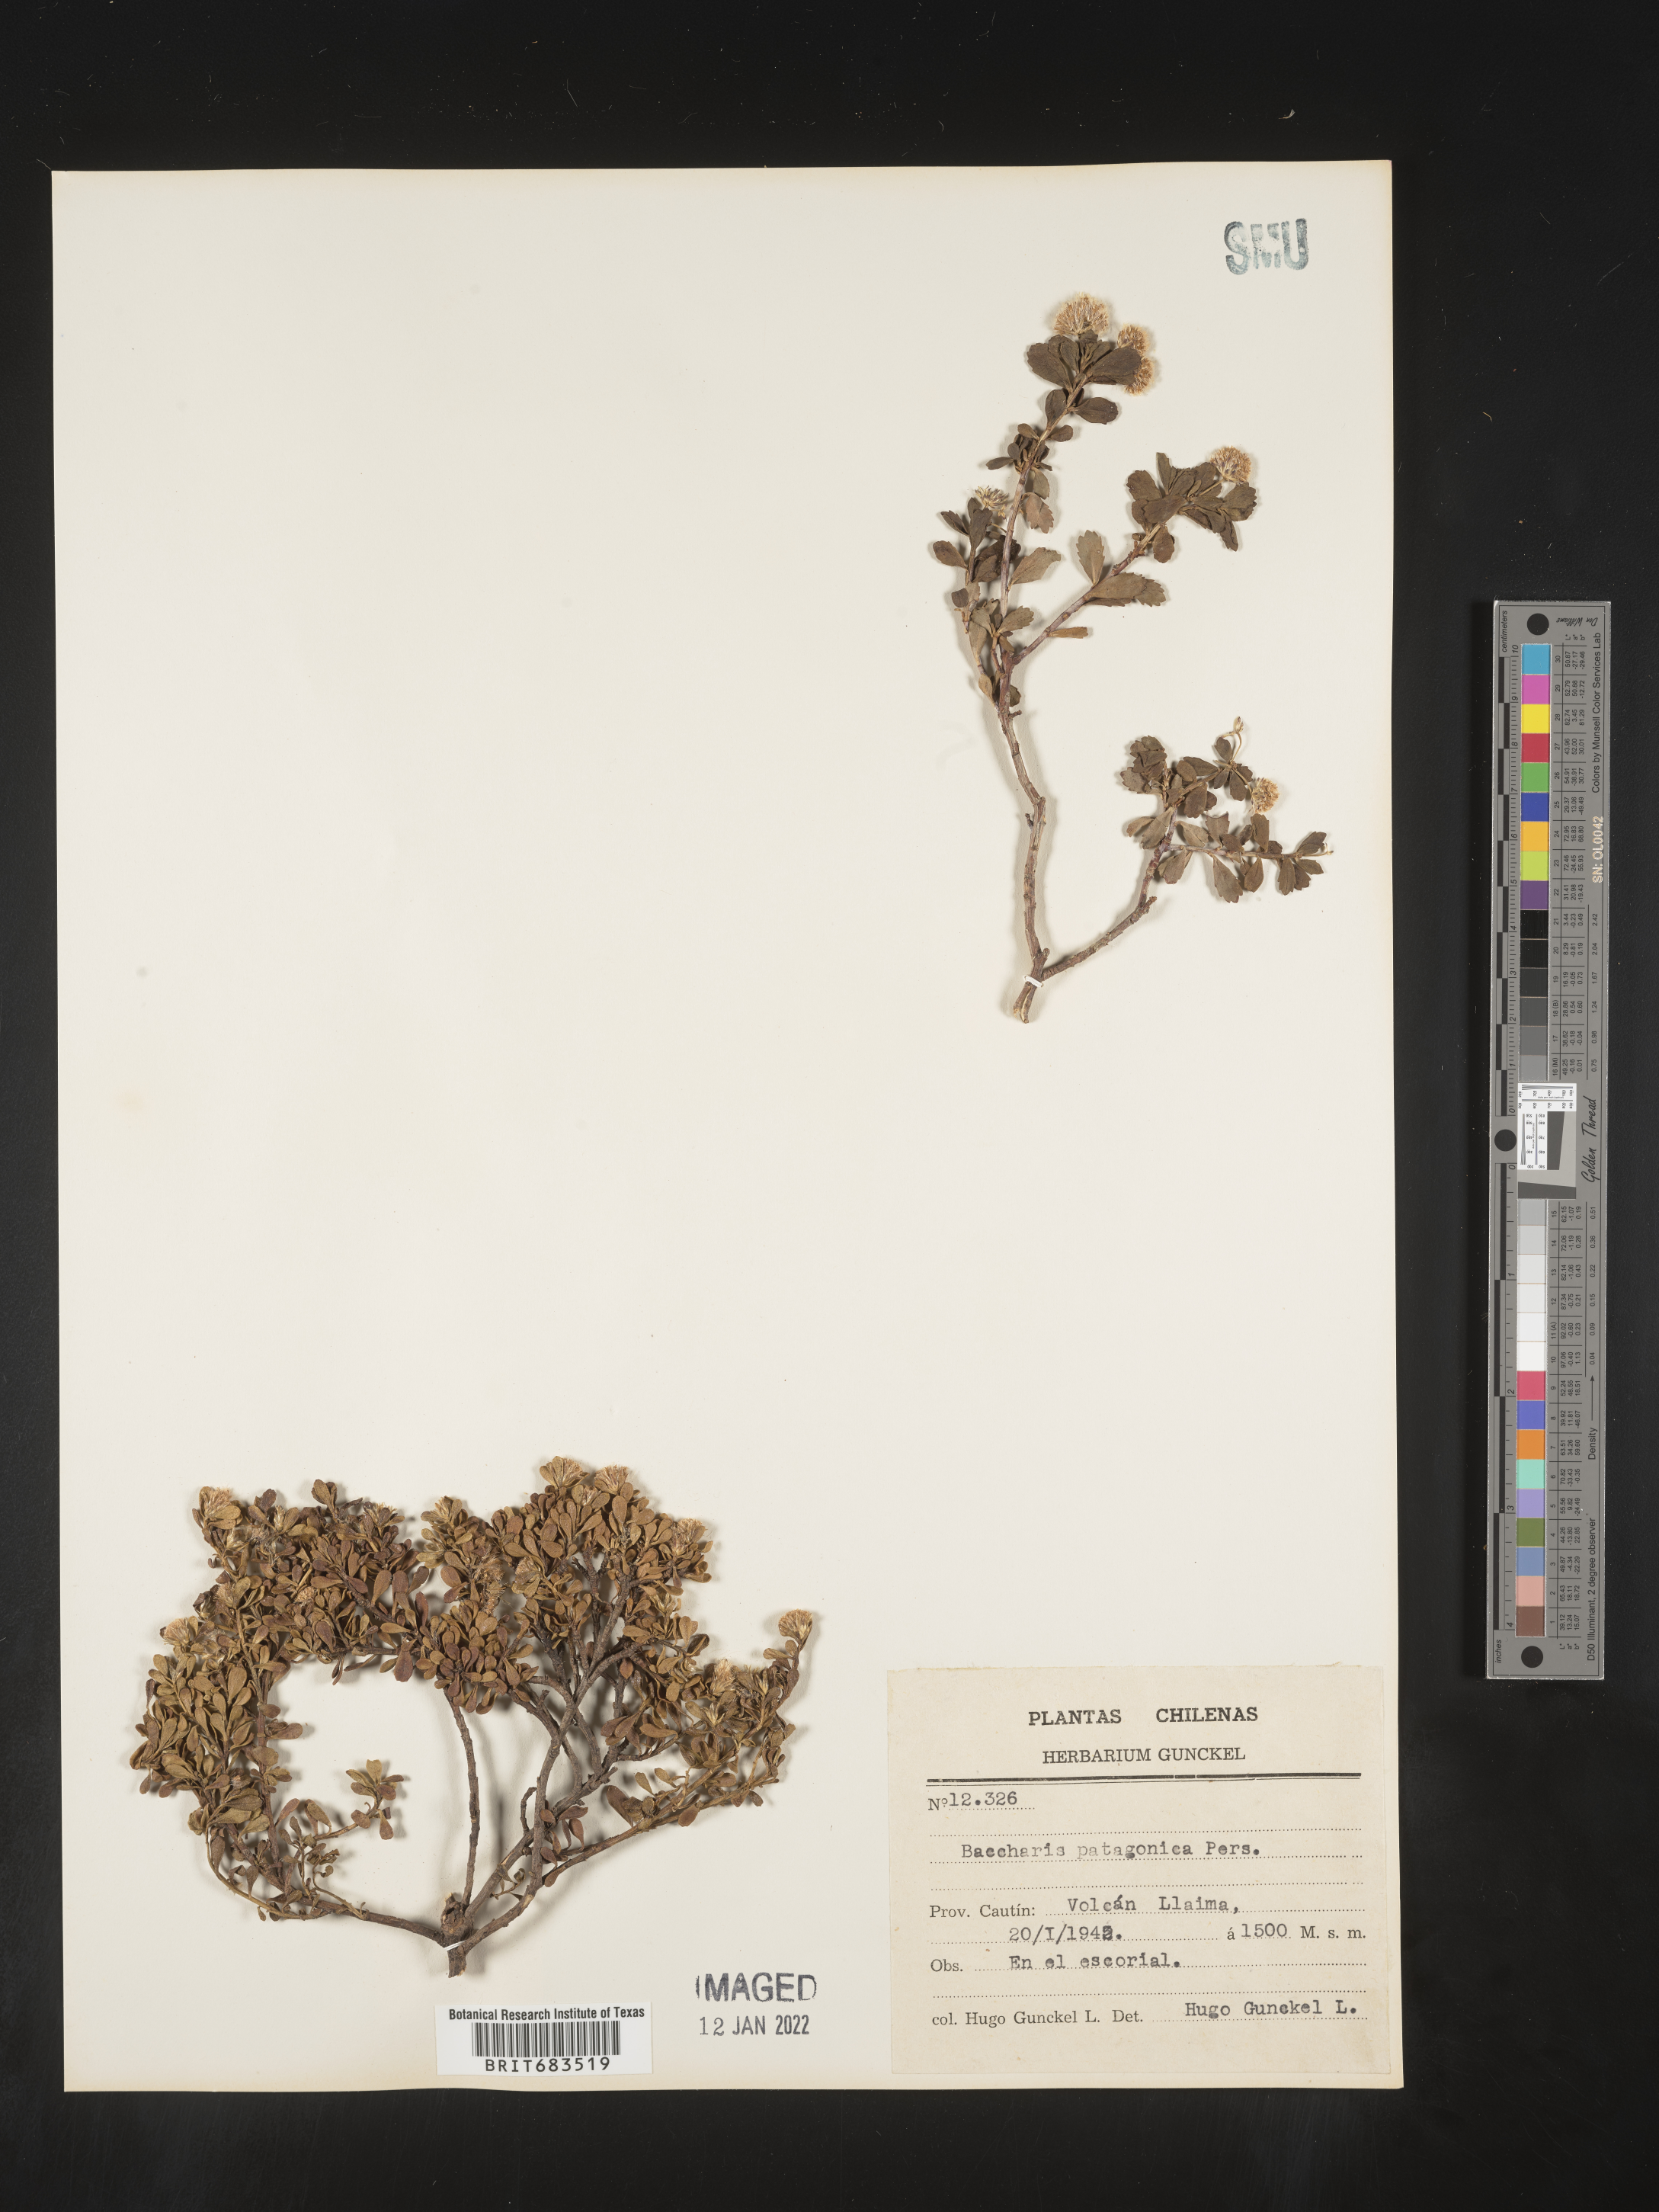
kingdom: Plantae
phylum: Tracheophyta
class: Magnoliopsida
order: Asterales
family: Asteraceae
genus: Baccharis
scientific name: Baccharis
